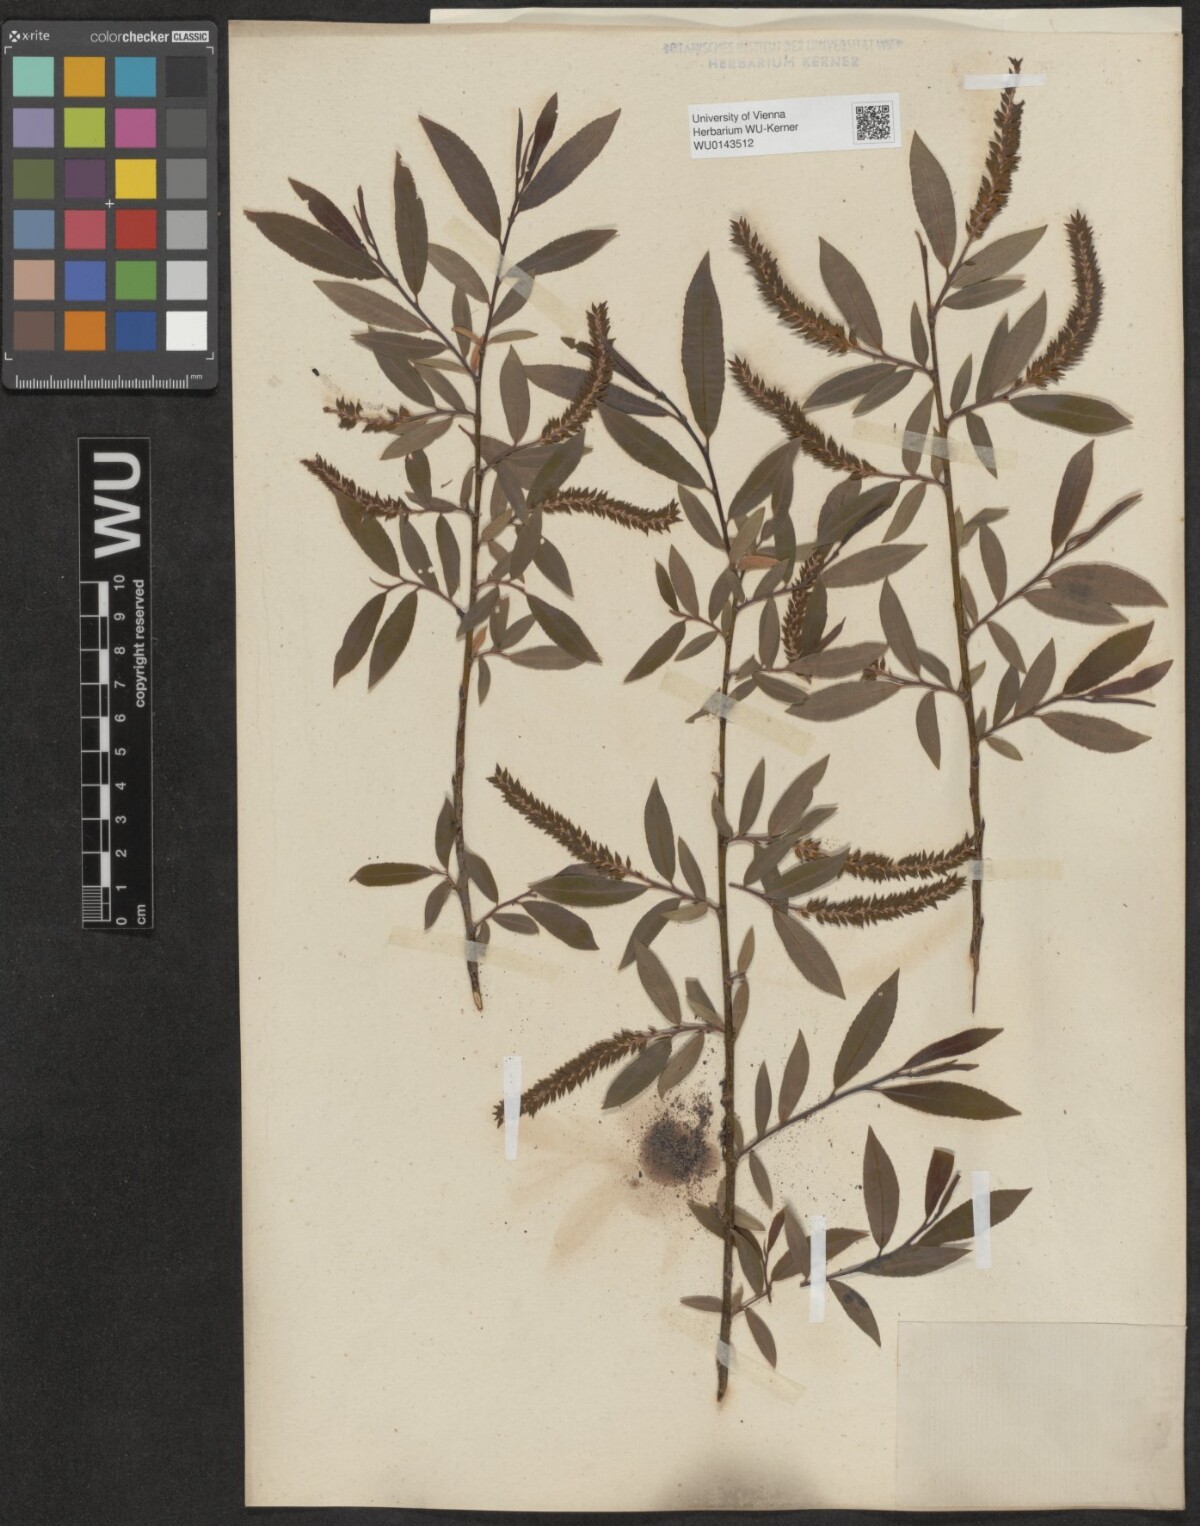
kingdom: Plantae
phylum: Tracheophyta
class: Magnoliopsida
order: Malpighiales
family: Salicaceae
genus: Salix
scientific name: Salix triandra
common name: Almond willow
